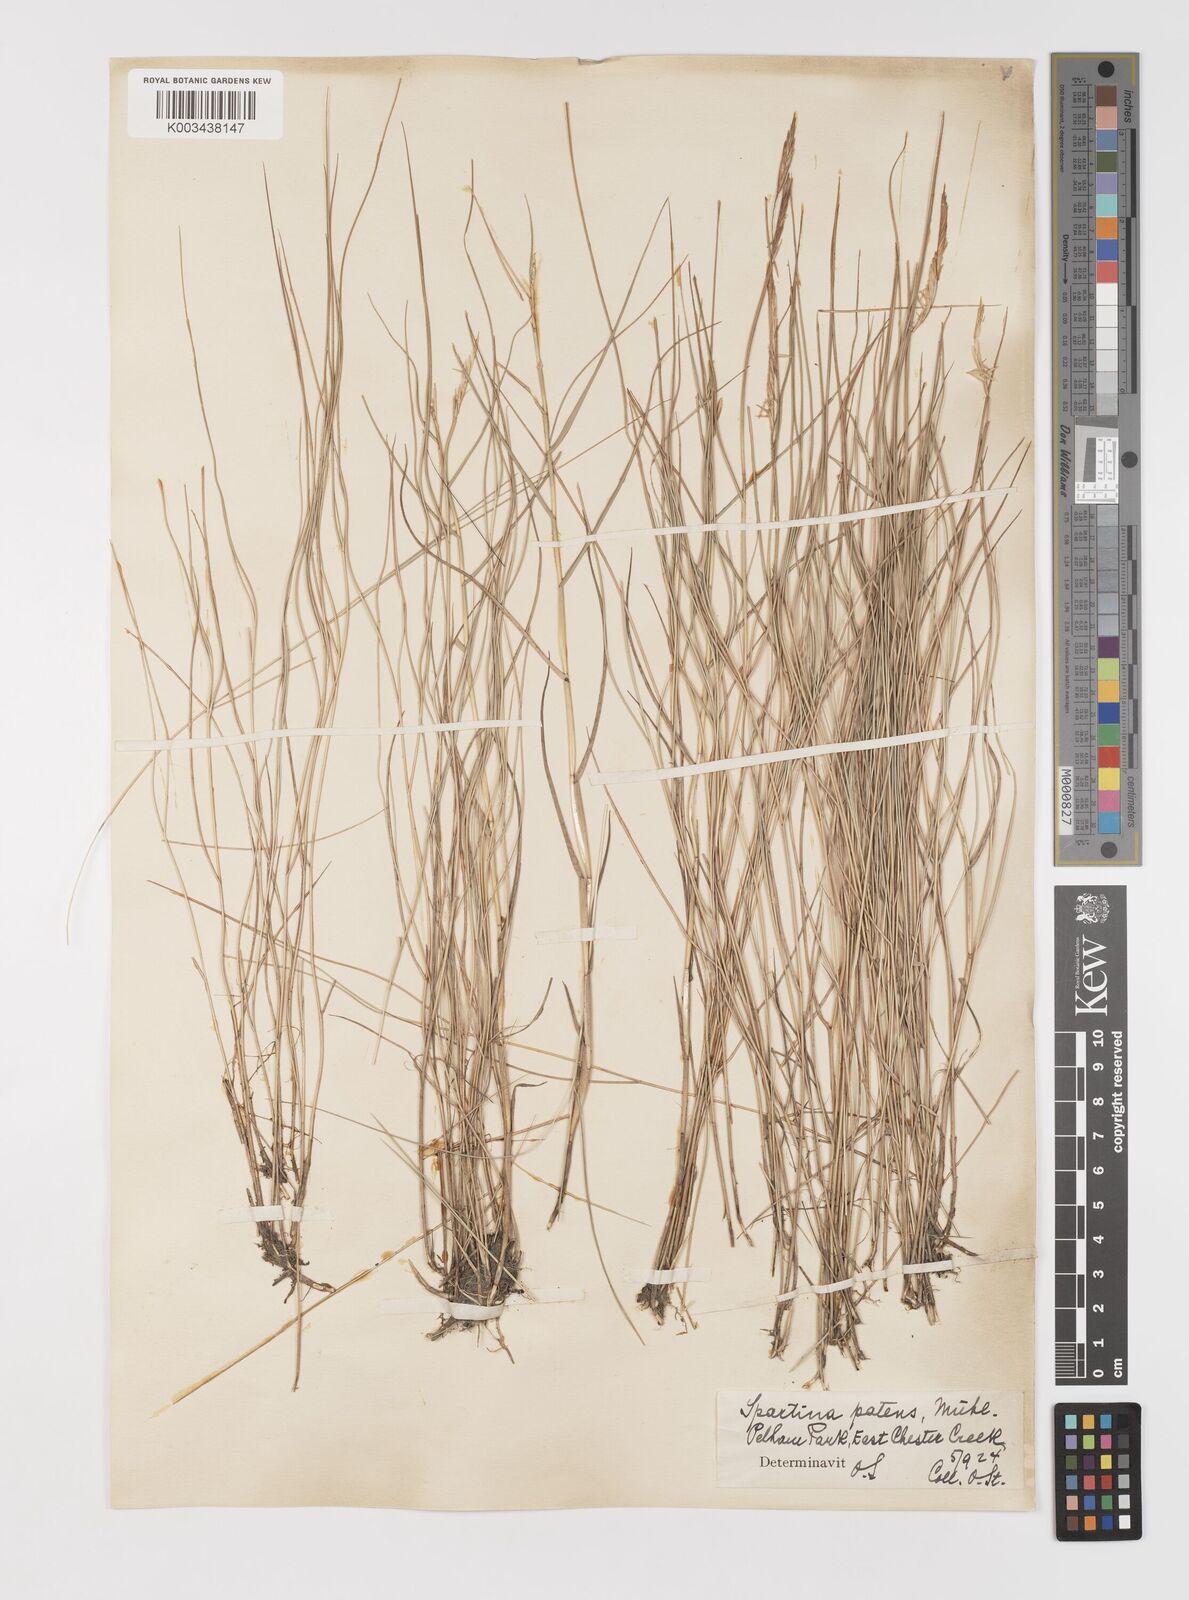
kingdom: Plantae
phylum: Tracheophyta
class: Liliopsida
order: Poales
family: Poaceae
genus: Sporobolus
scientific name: Sporobolus pumilus
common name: Highwater grass
